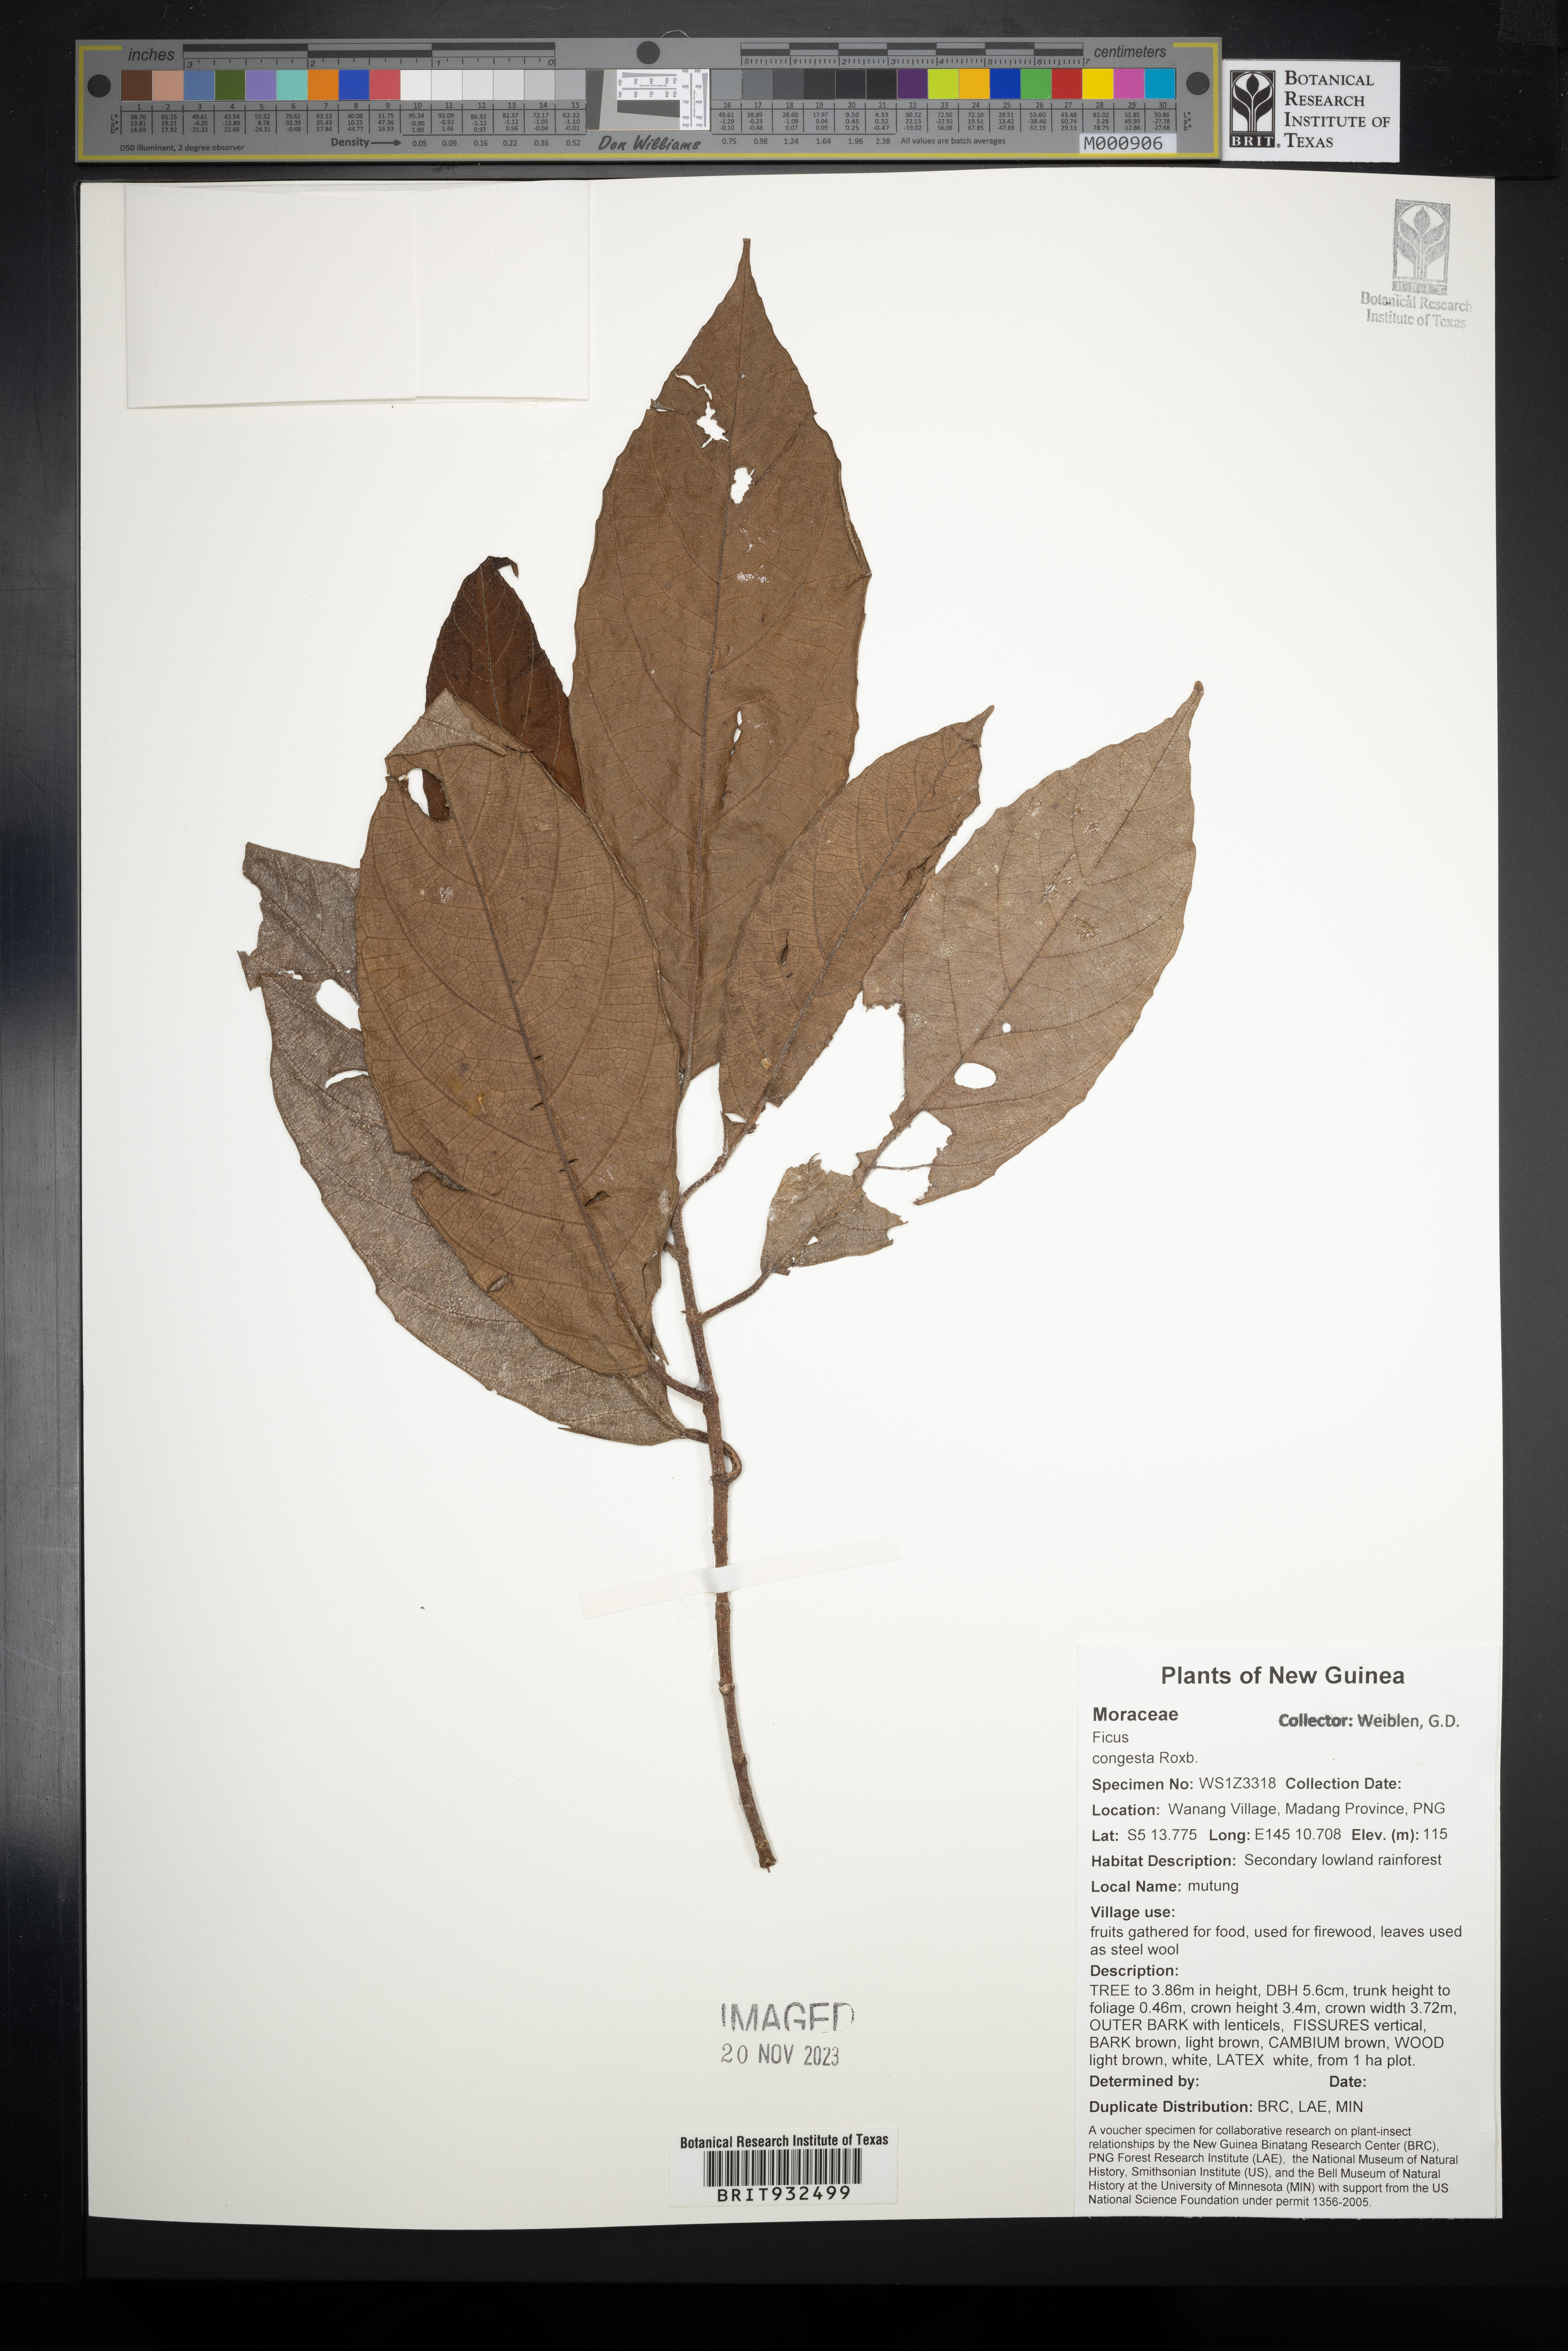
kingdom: Plantae
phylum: Tracheophyta
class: Magnoliopsida
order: Rosales
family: Moraceae
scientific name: Moraceae
